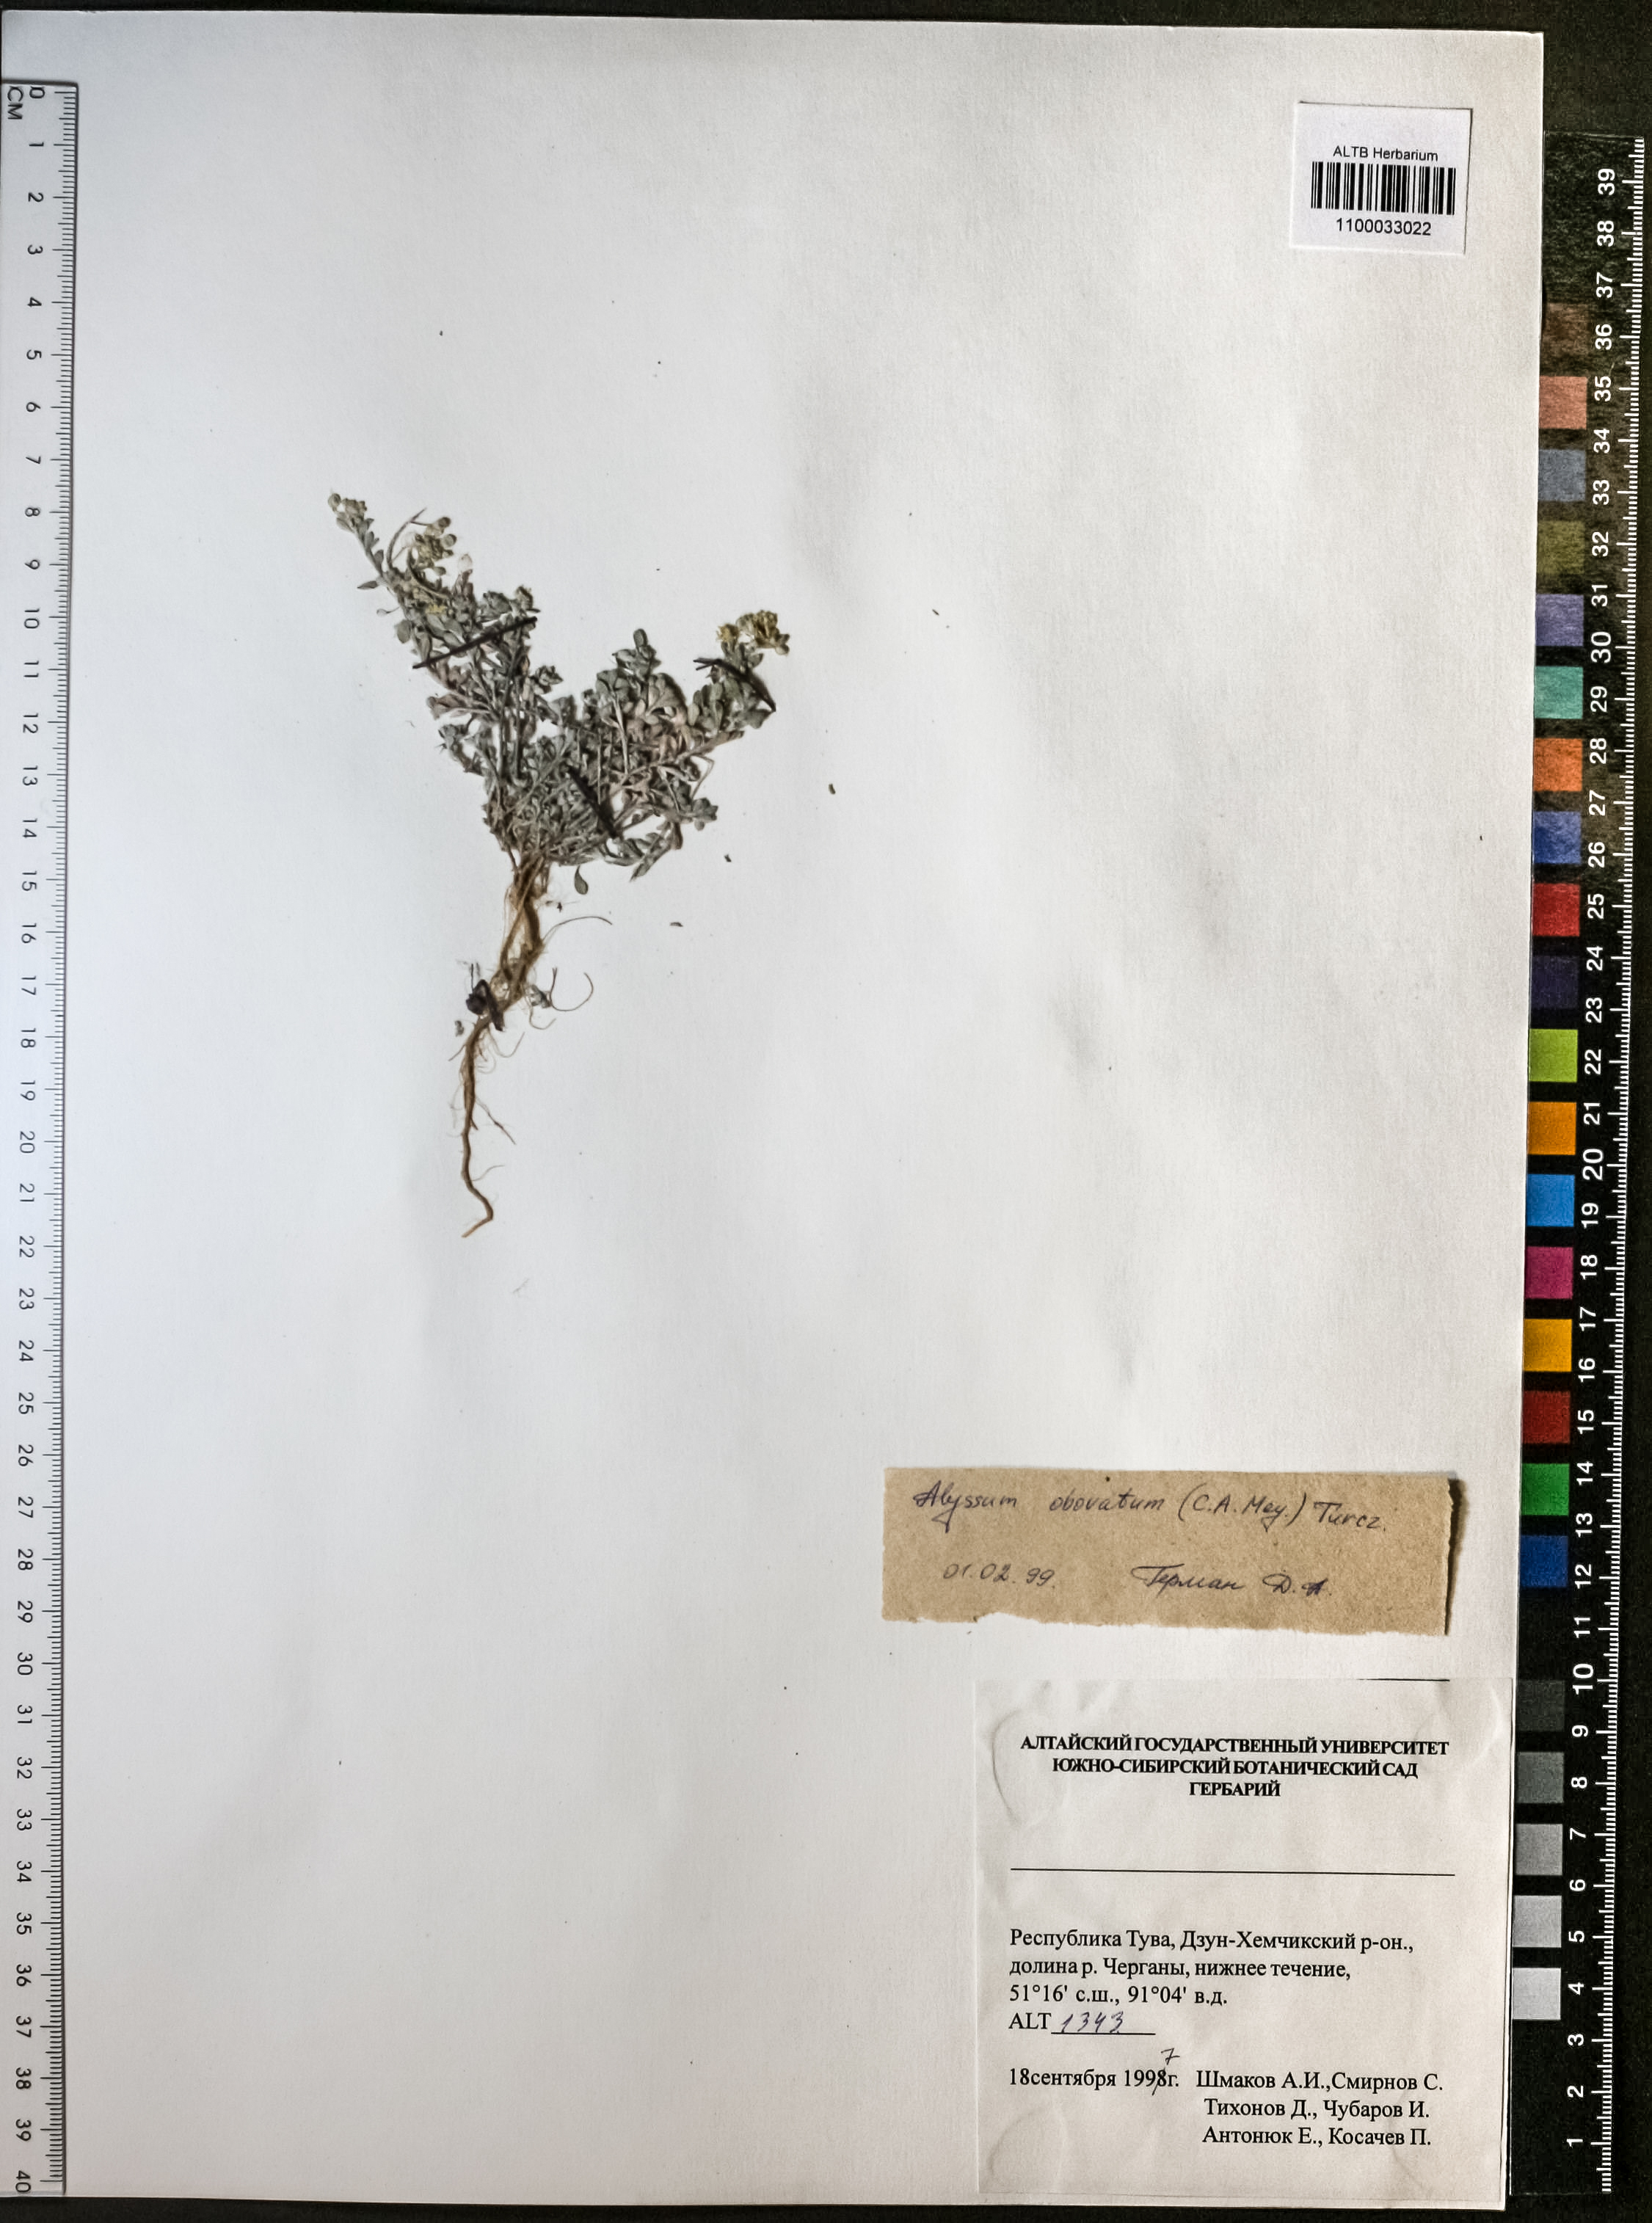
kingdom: Plantae
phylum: Tracheophyta
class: Magnoliopsida
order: Brassicales
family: Brassicaceae
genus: Odontarrhena
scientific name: Odontarrhena obovata
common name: American alyssum
